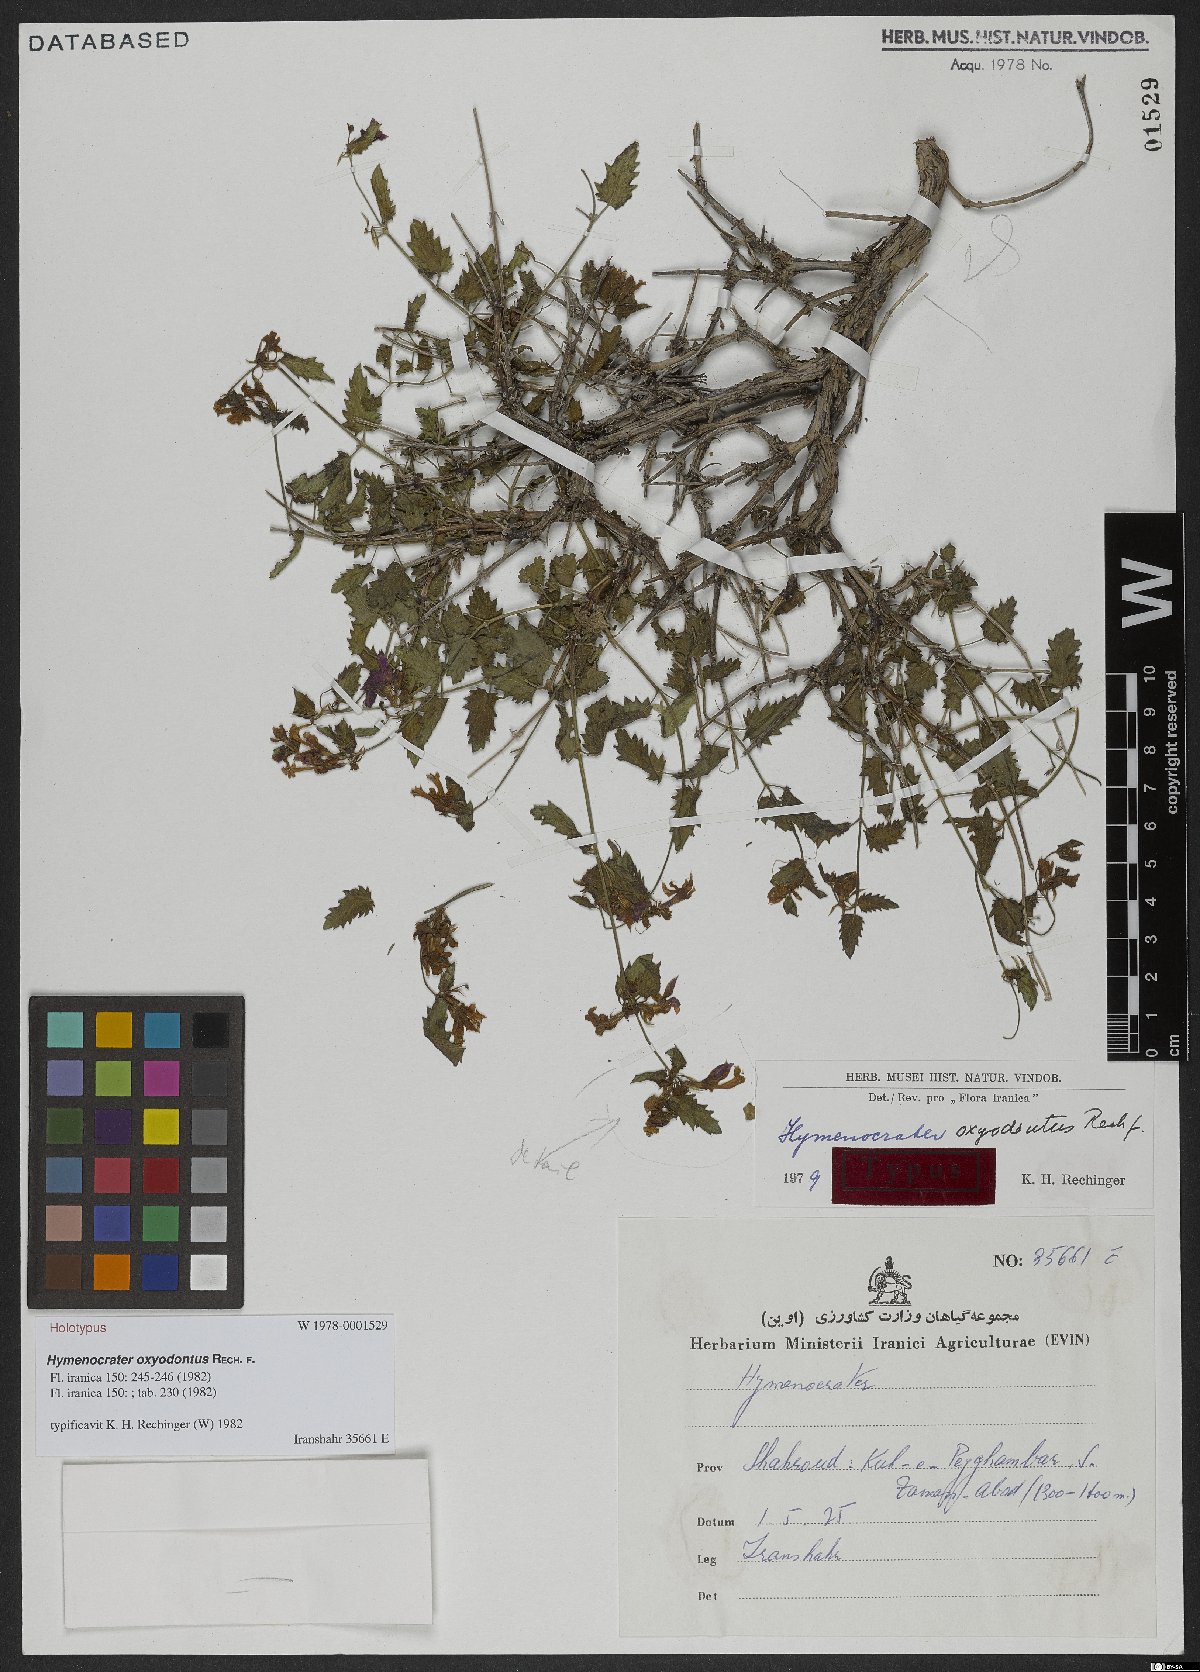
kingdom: Plantae
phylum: Tracheophyta
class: Magnoliopsida
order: Lamiales
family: Lamiaceae
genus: Nepeta
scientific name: Nepeta turanica
